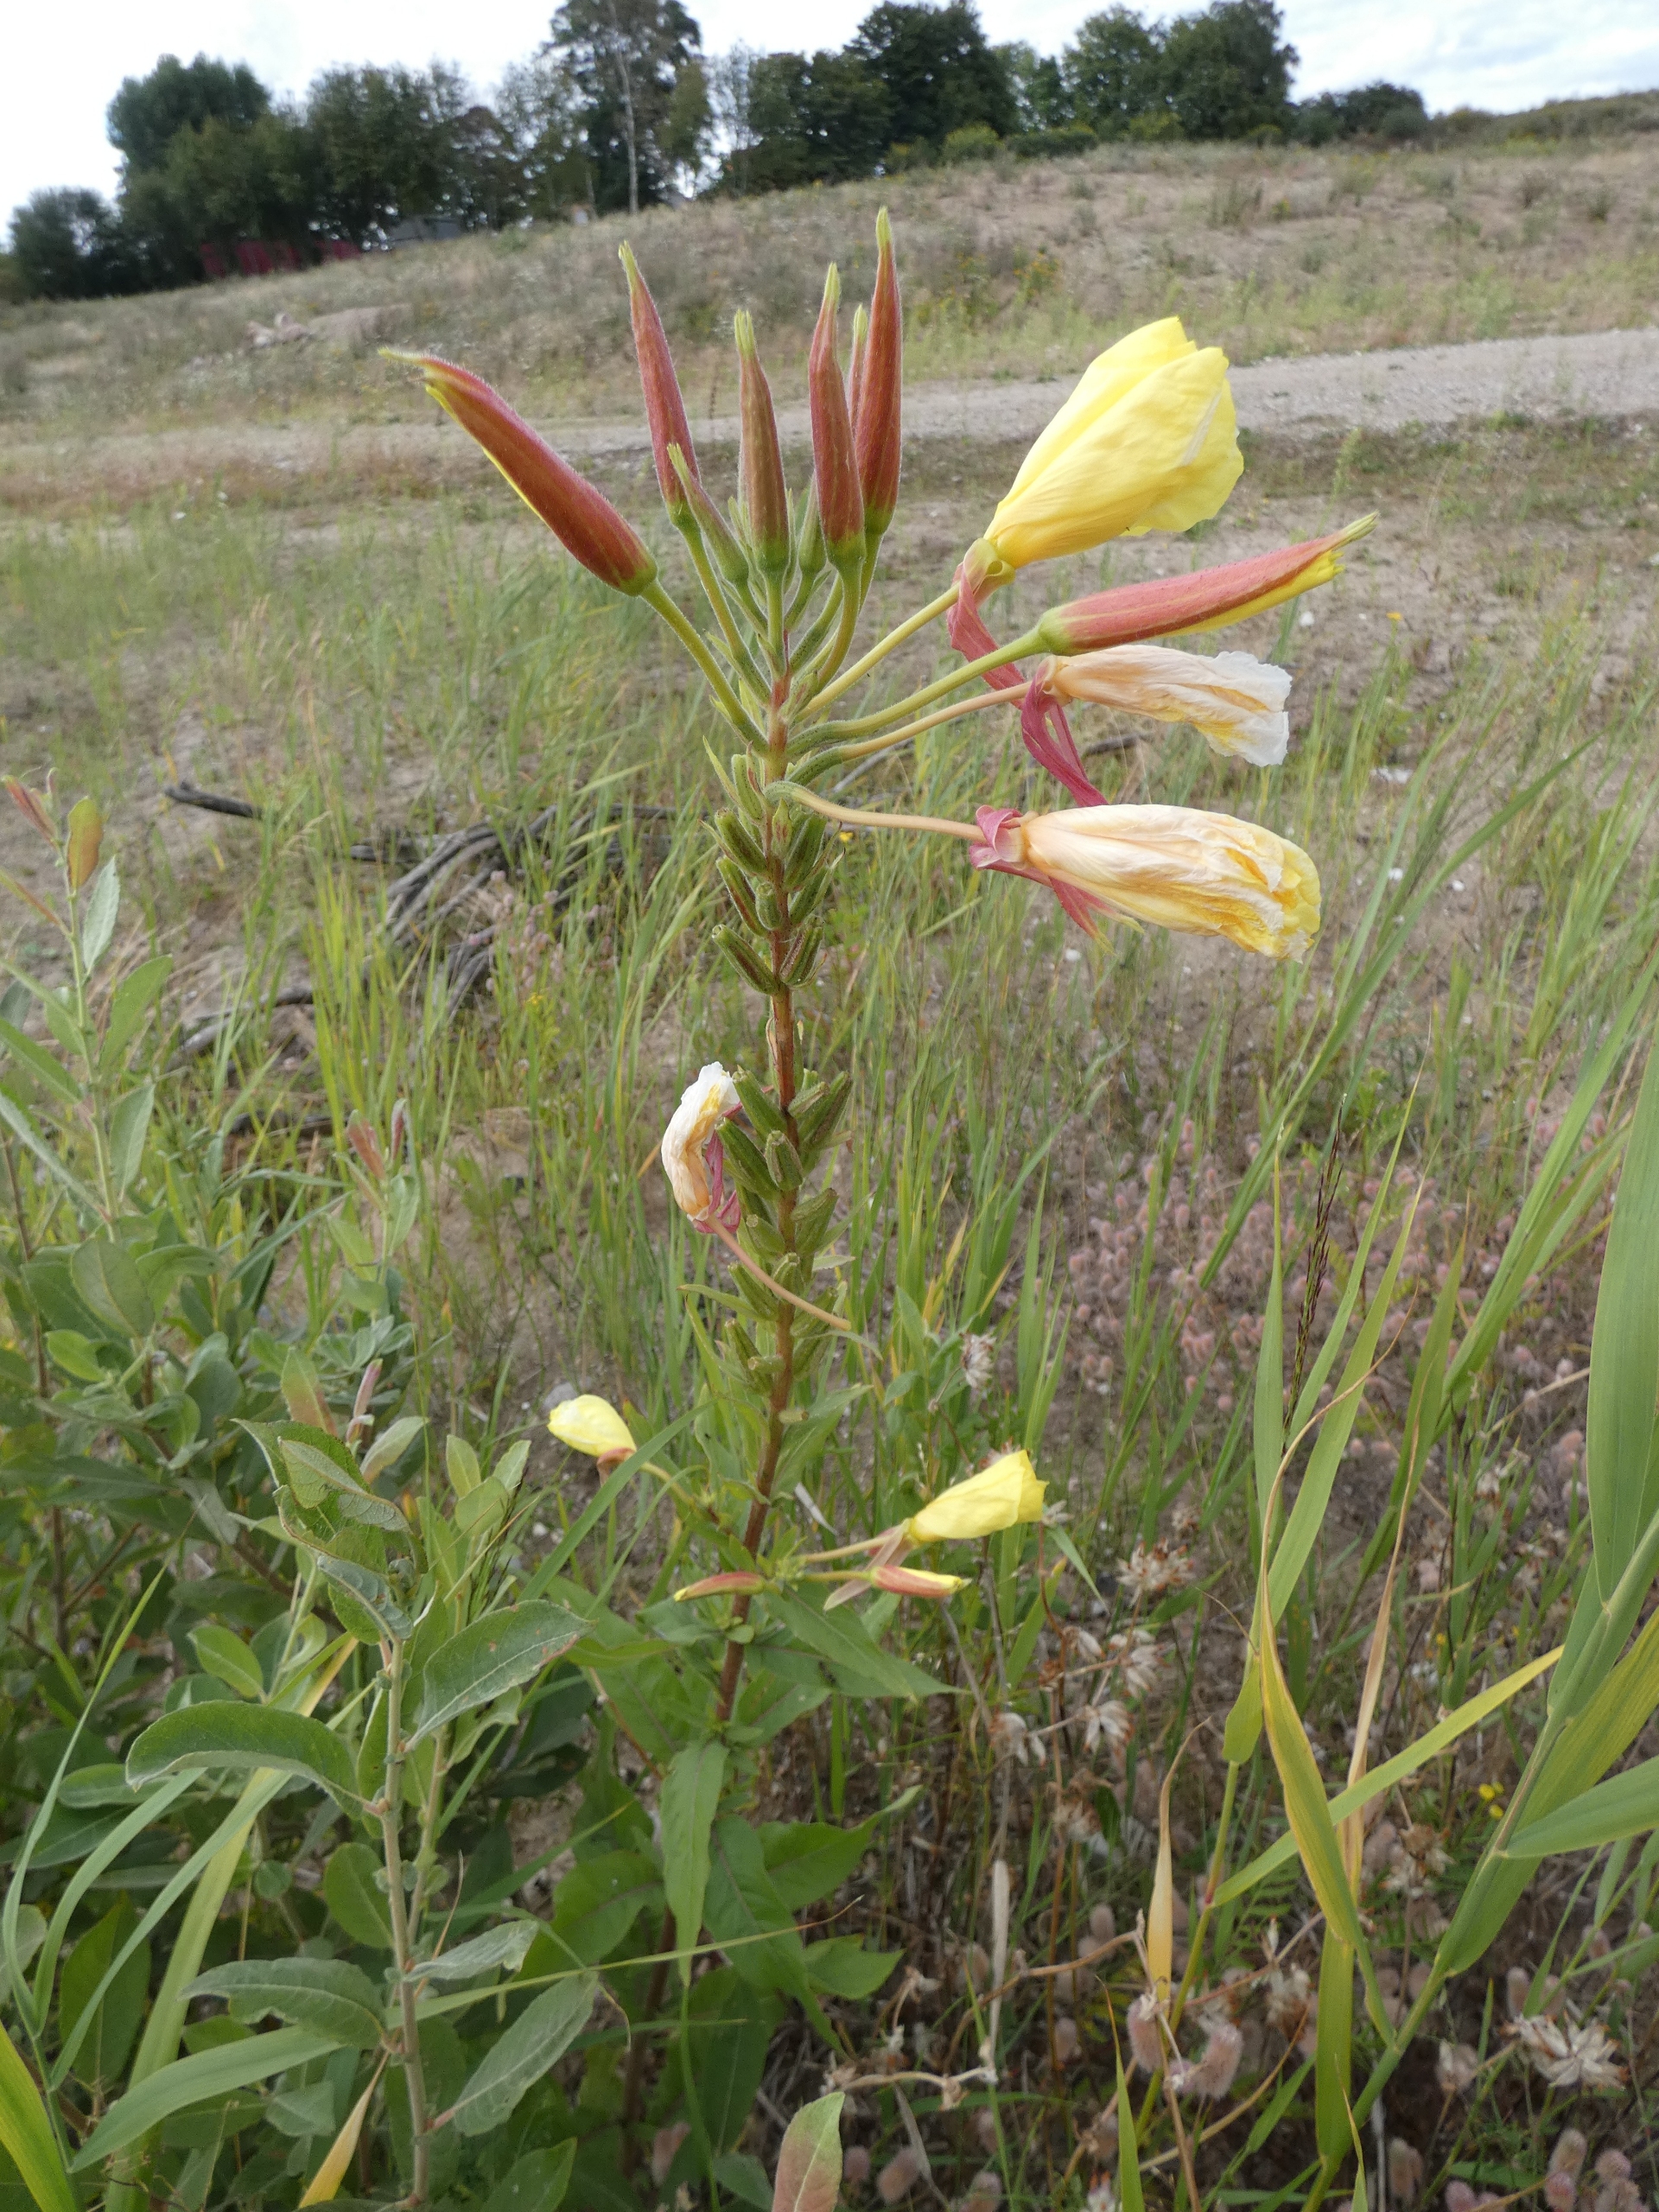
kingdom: Plantae
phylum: Tracheophyta
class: Magnoliopsida
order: Myrtales
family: Onagraceae
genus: Oenothera
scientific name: Oenothera glazioviana
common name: Kæmpe-natlys
